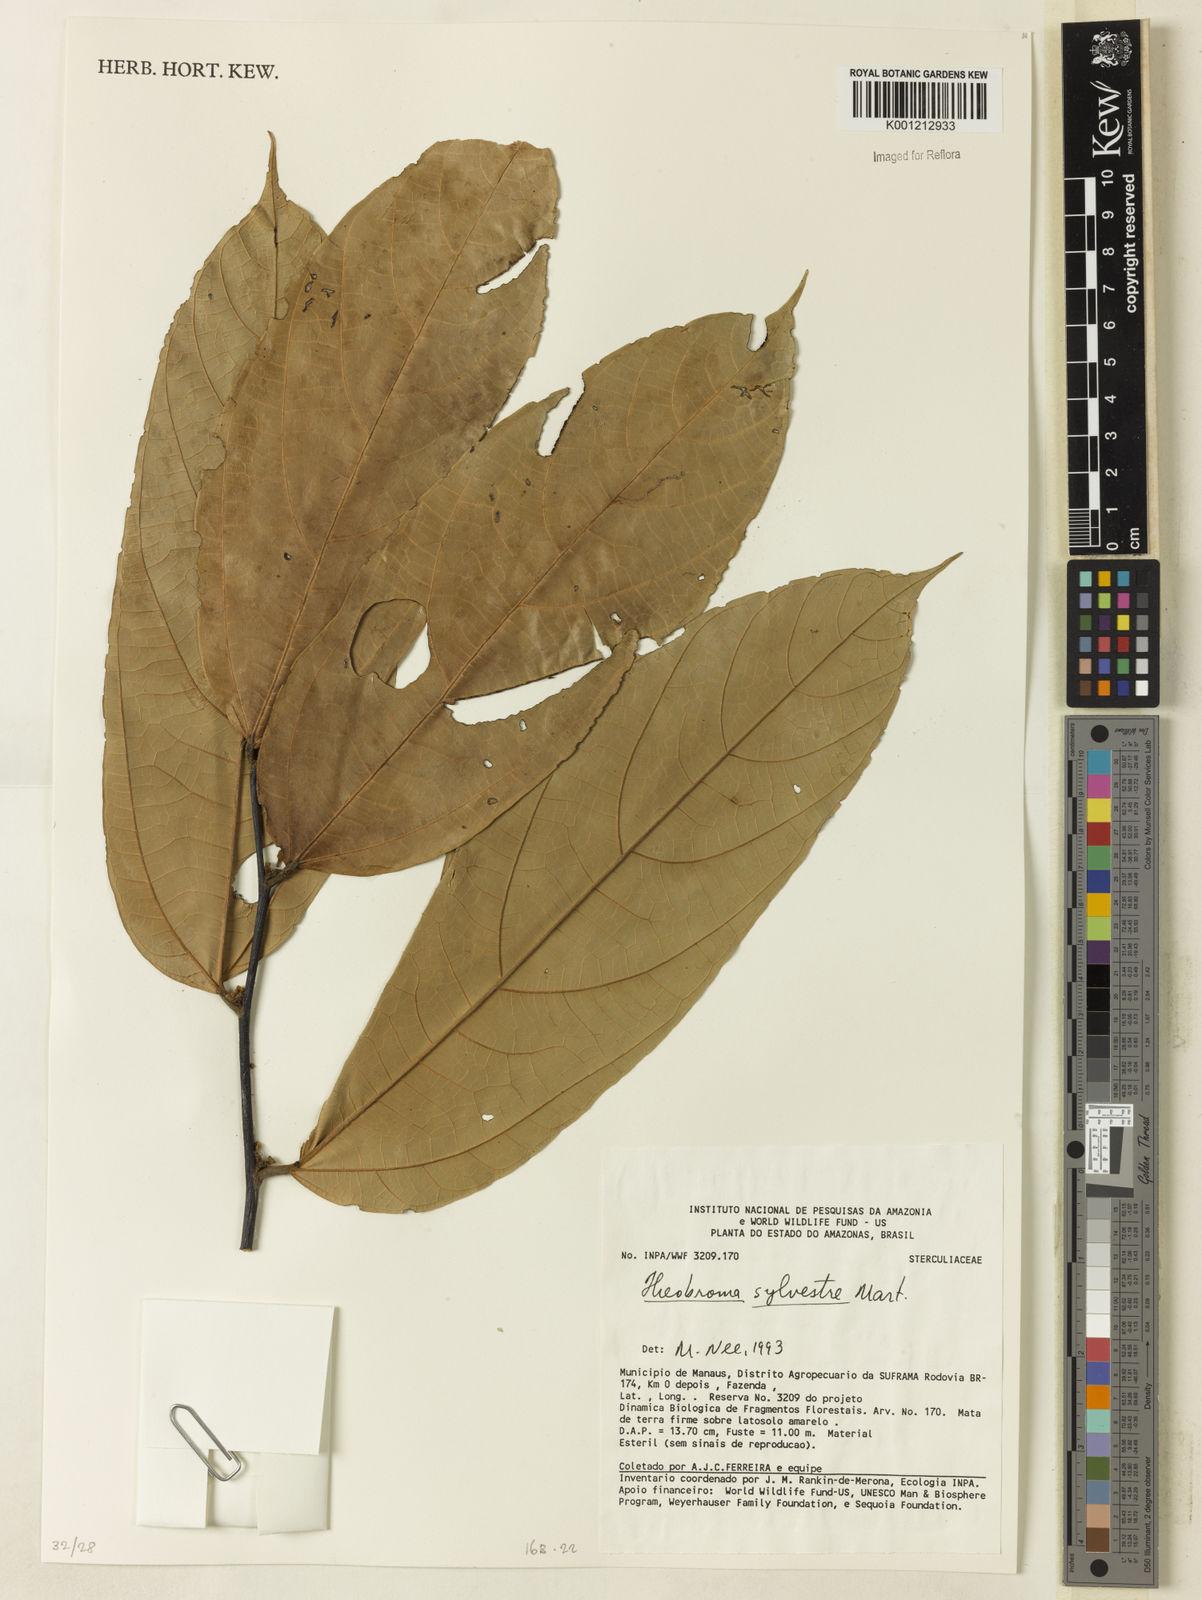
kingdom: Plantae
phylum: Tracheophyta
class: Magnoliopsida
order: Malvales
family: Malvaceae
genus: Theobroma
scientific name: Theobroma sylvestre
